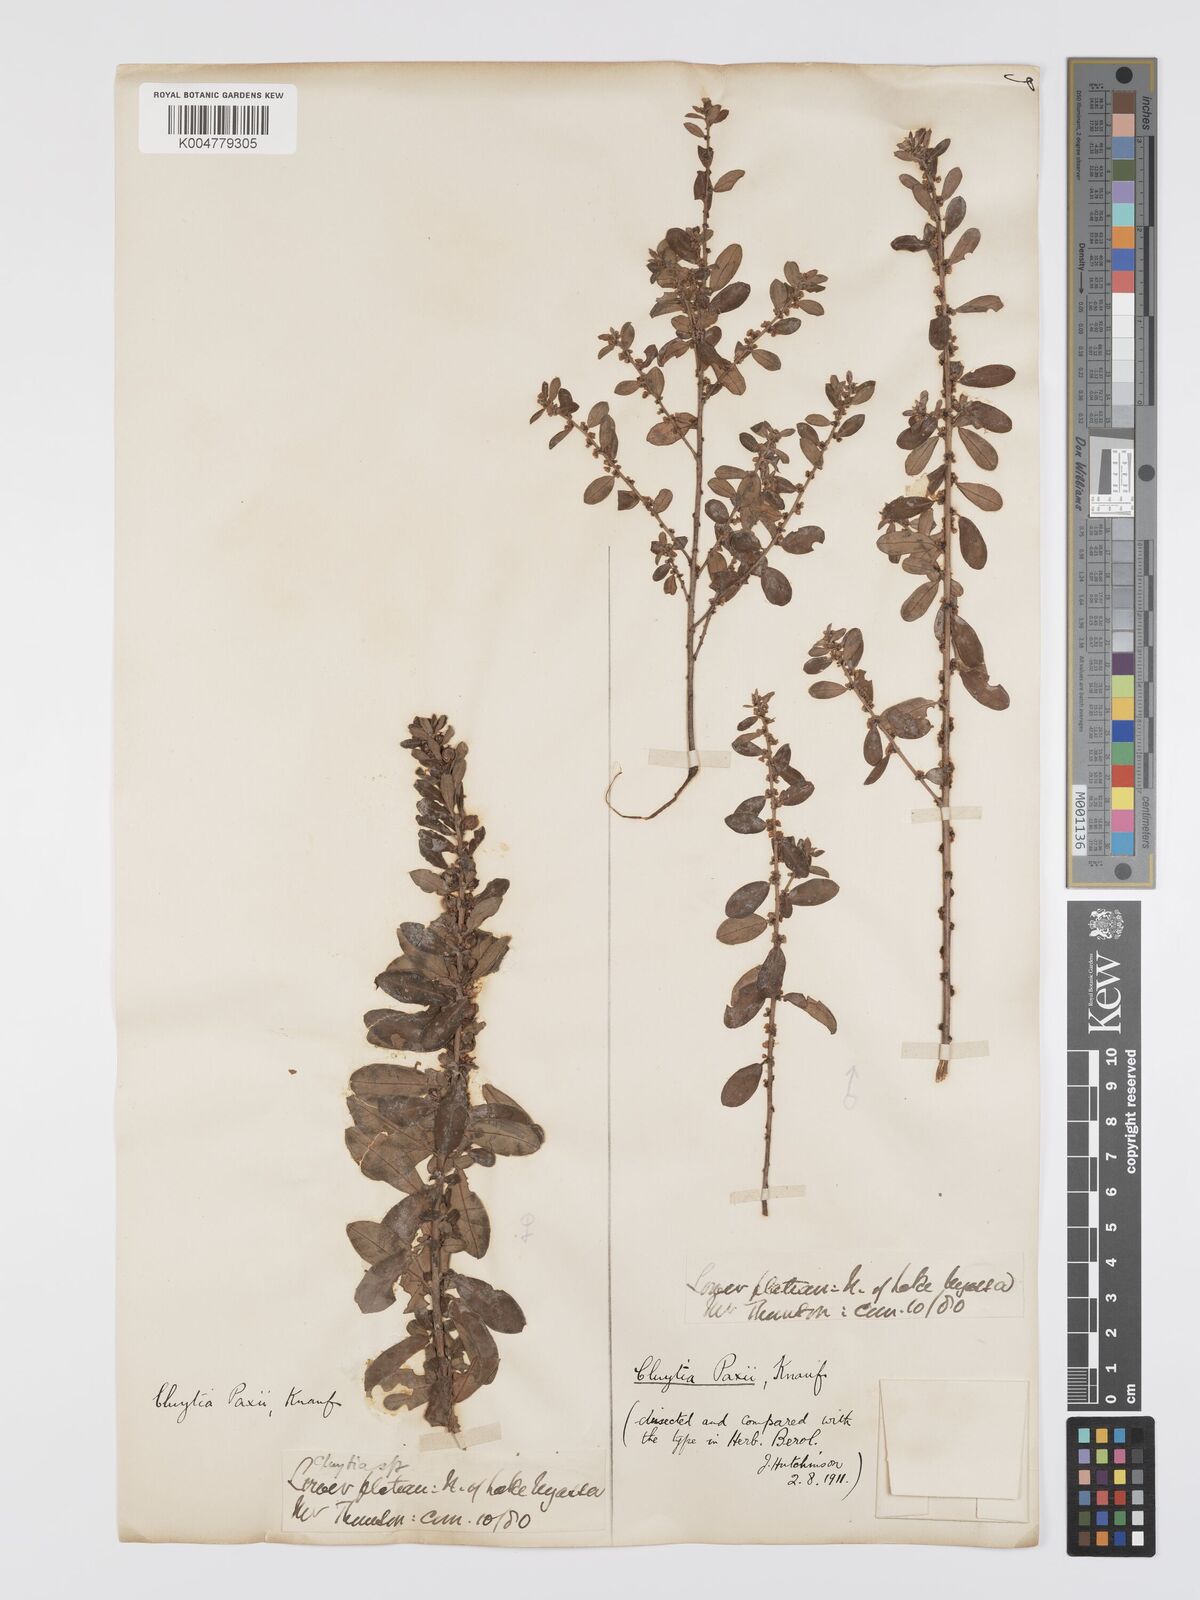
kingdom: Plantae
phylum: Tracheophyta
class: Magnoliopsida
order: Malpighiales
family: Peraceae
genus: Clutia
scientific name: Clutia paxii
